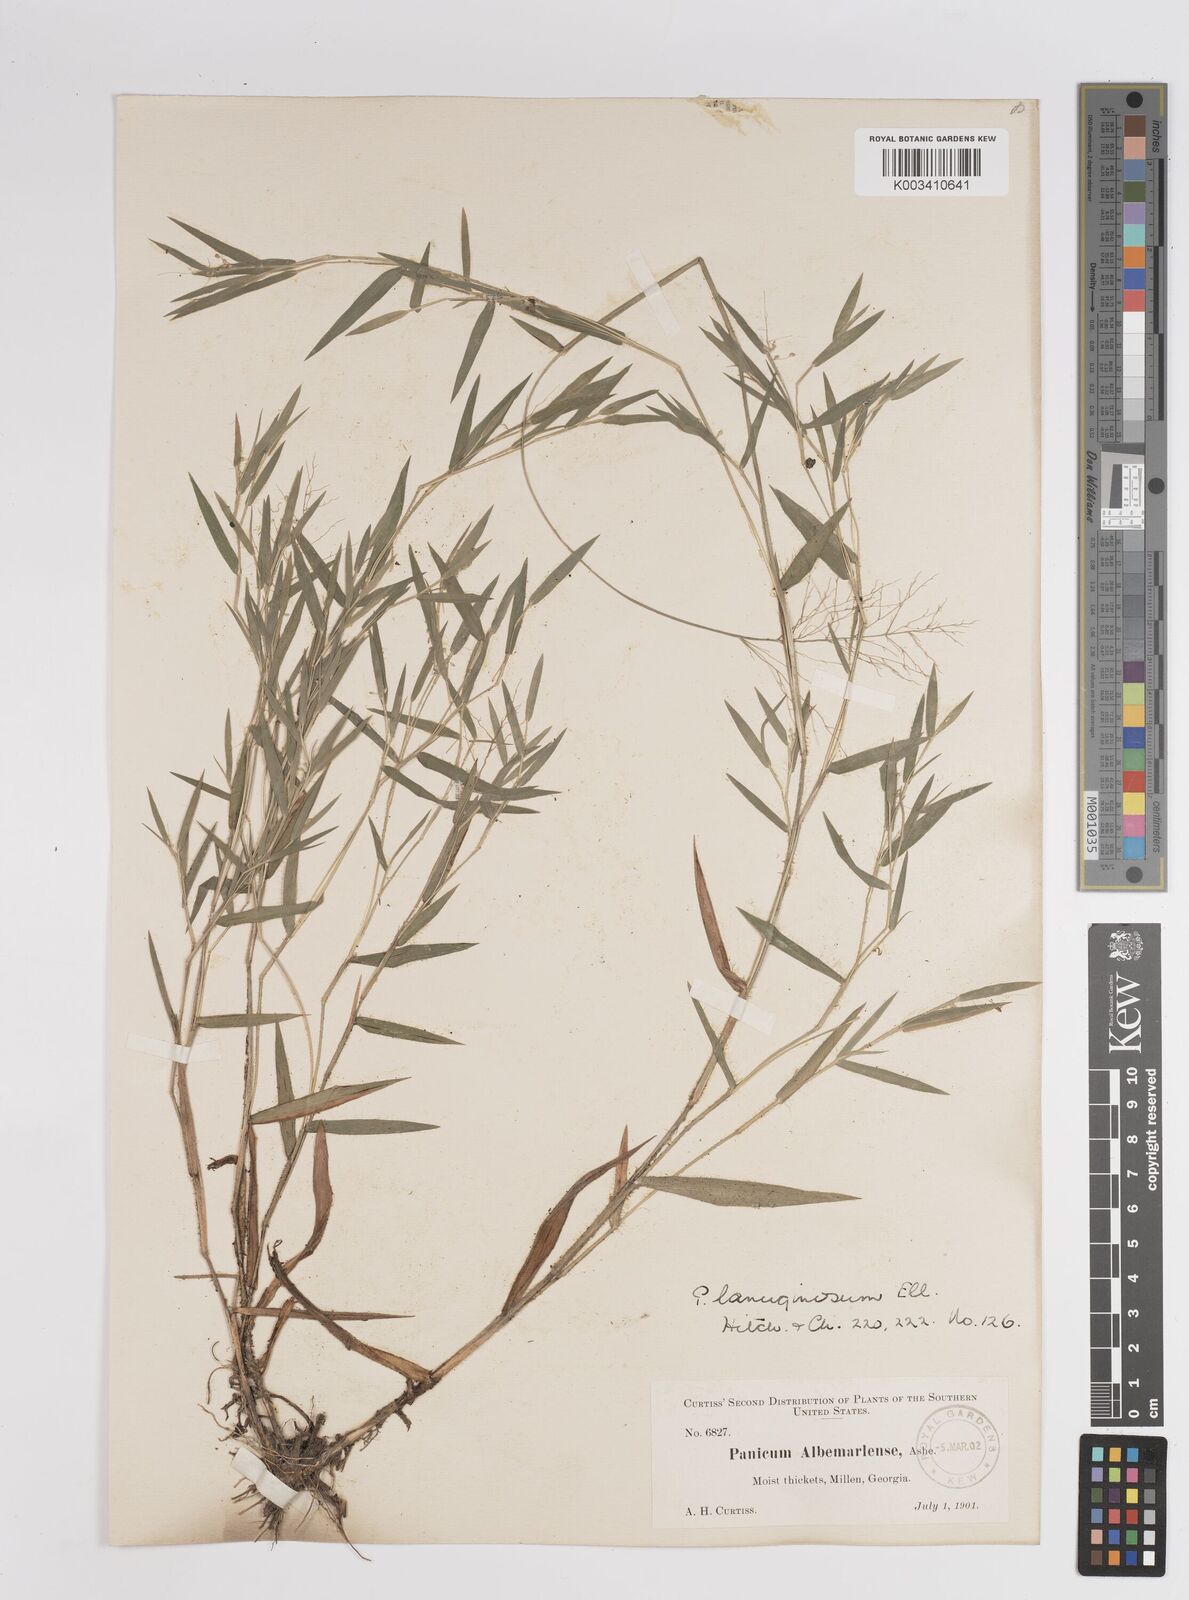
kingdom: Plantae
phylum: Tracheophyta
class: Liliopsida
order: Poales
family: Poaceae
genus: Dichanthelium
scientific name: Dichanthelium lanuginosum
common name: Woolly panicgrass
